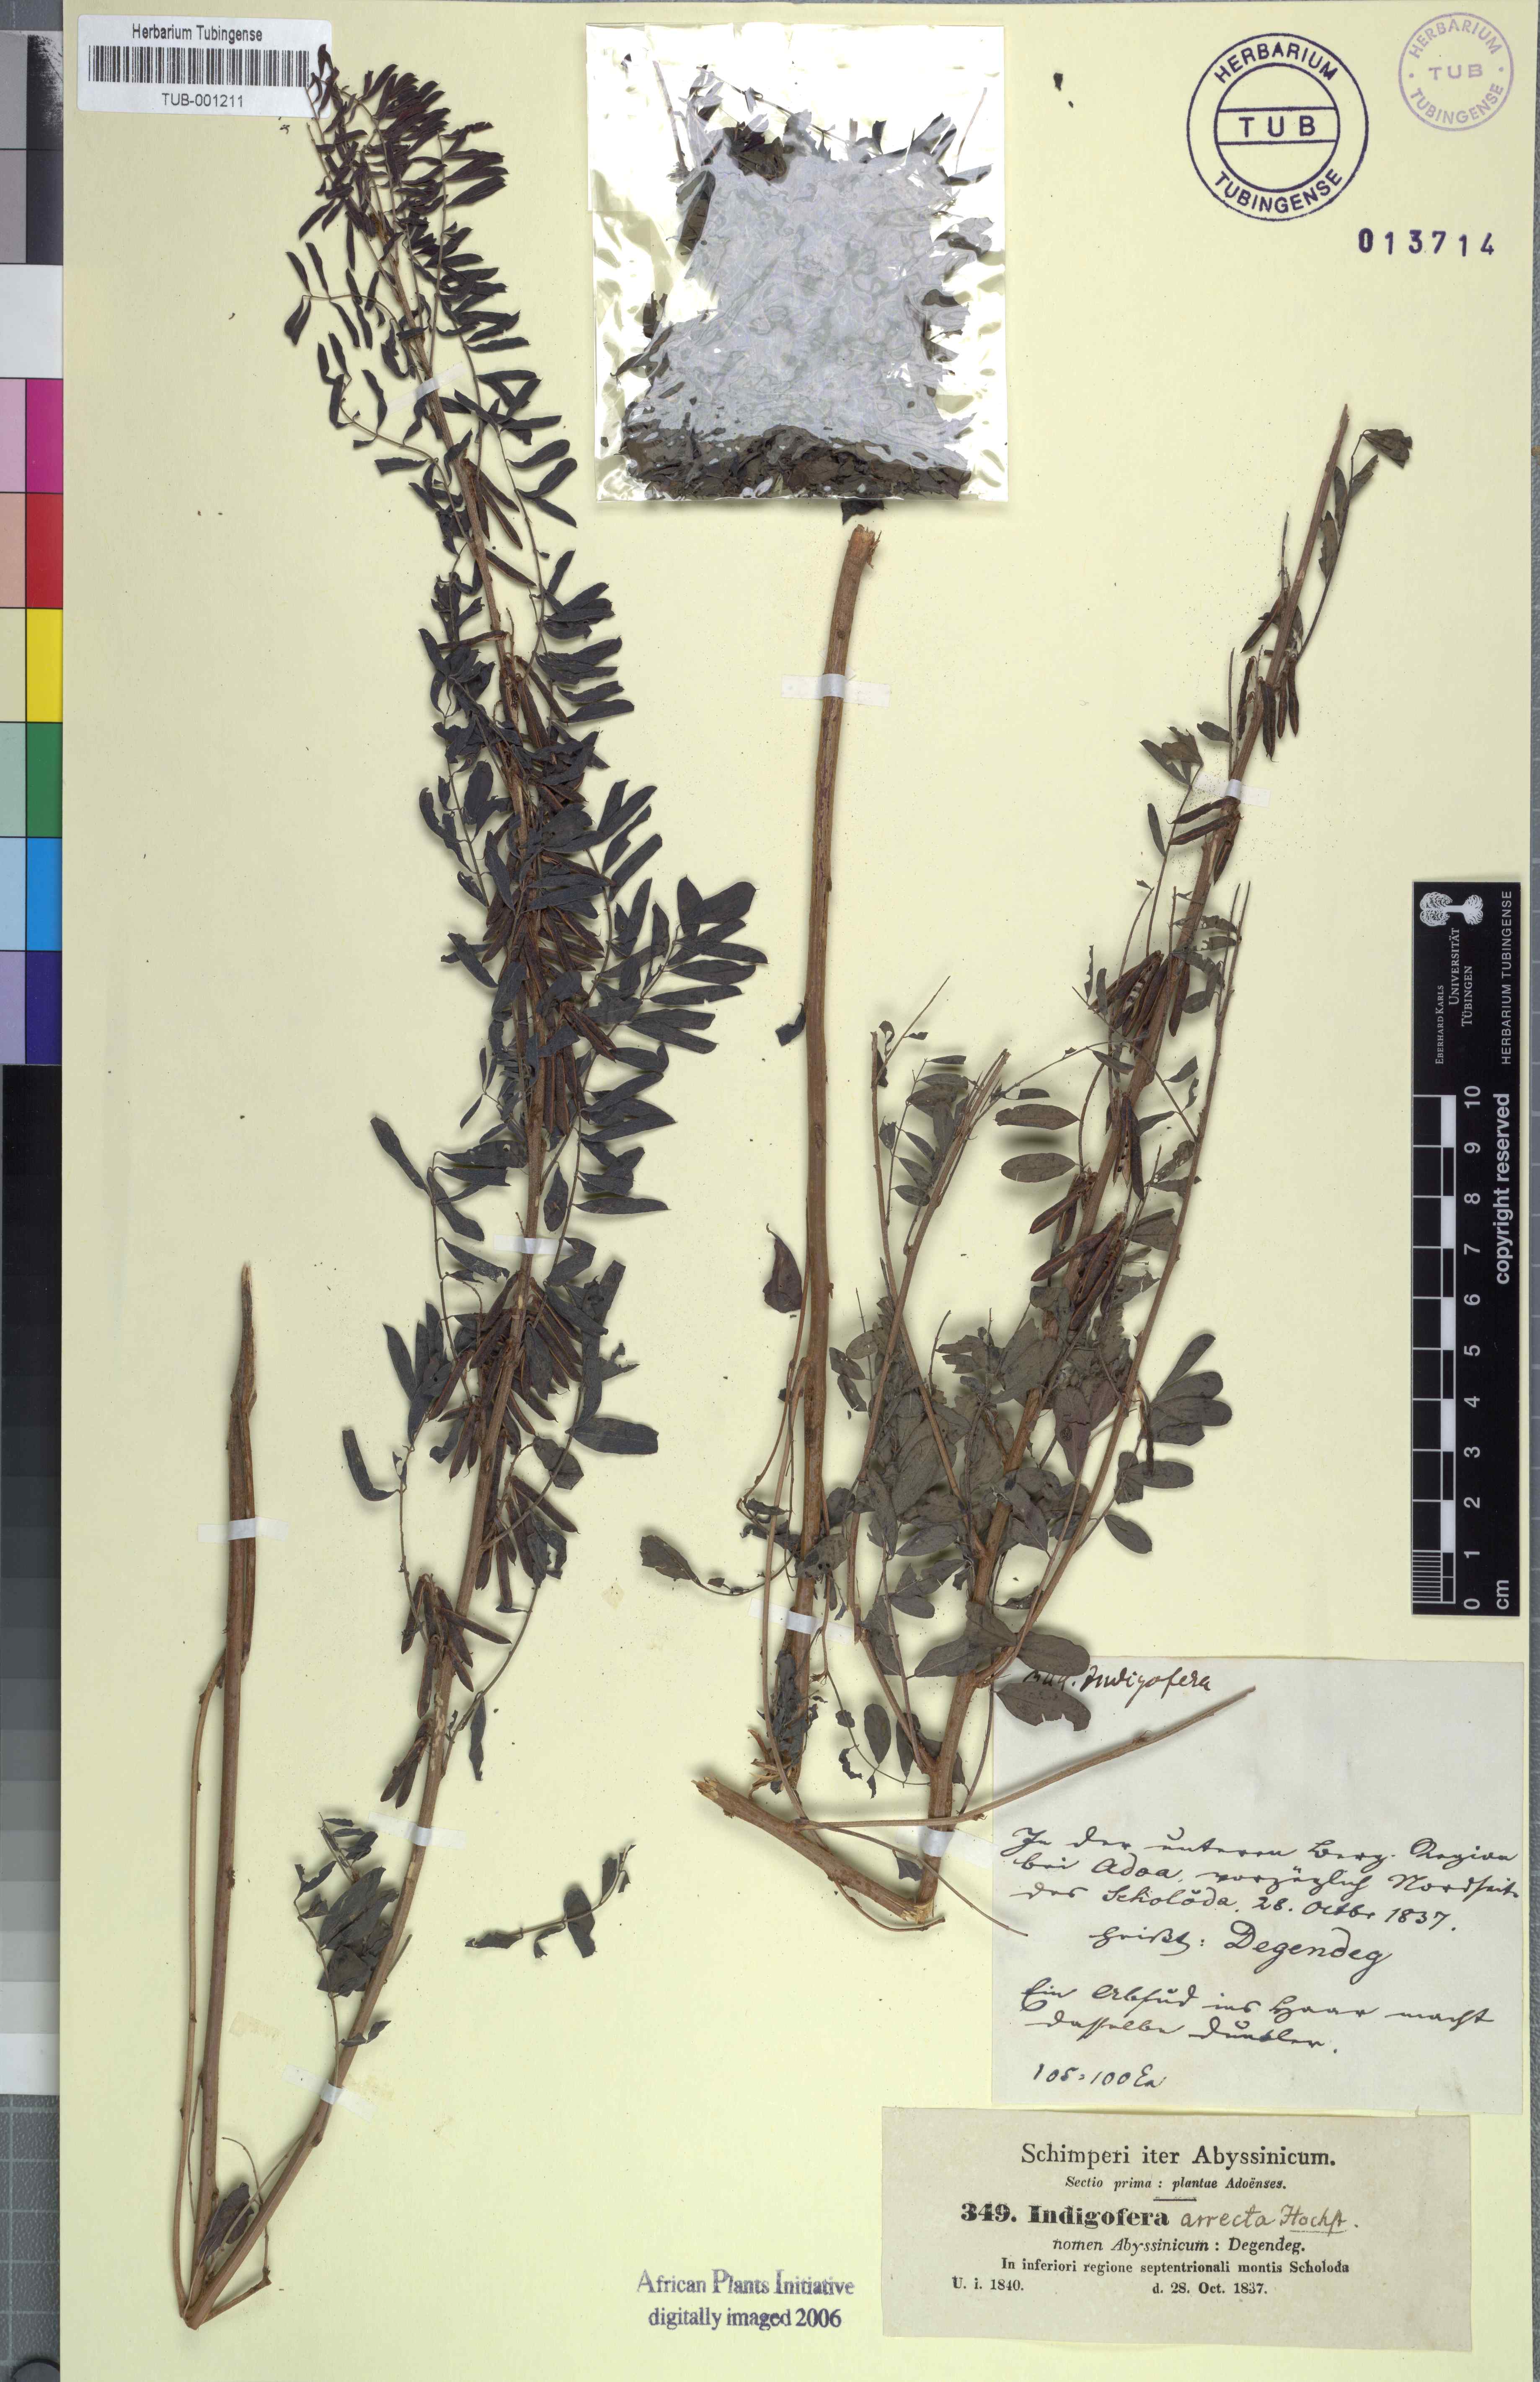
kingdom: Plantae
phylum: Tracheophyta
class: Magnoliopsida
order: Fabales
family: Fabaceae
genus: Indigofera
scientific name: Indigofera arrecta
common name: Bengal indigo
